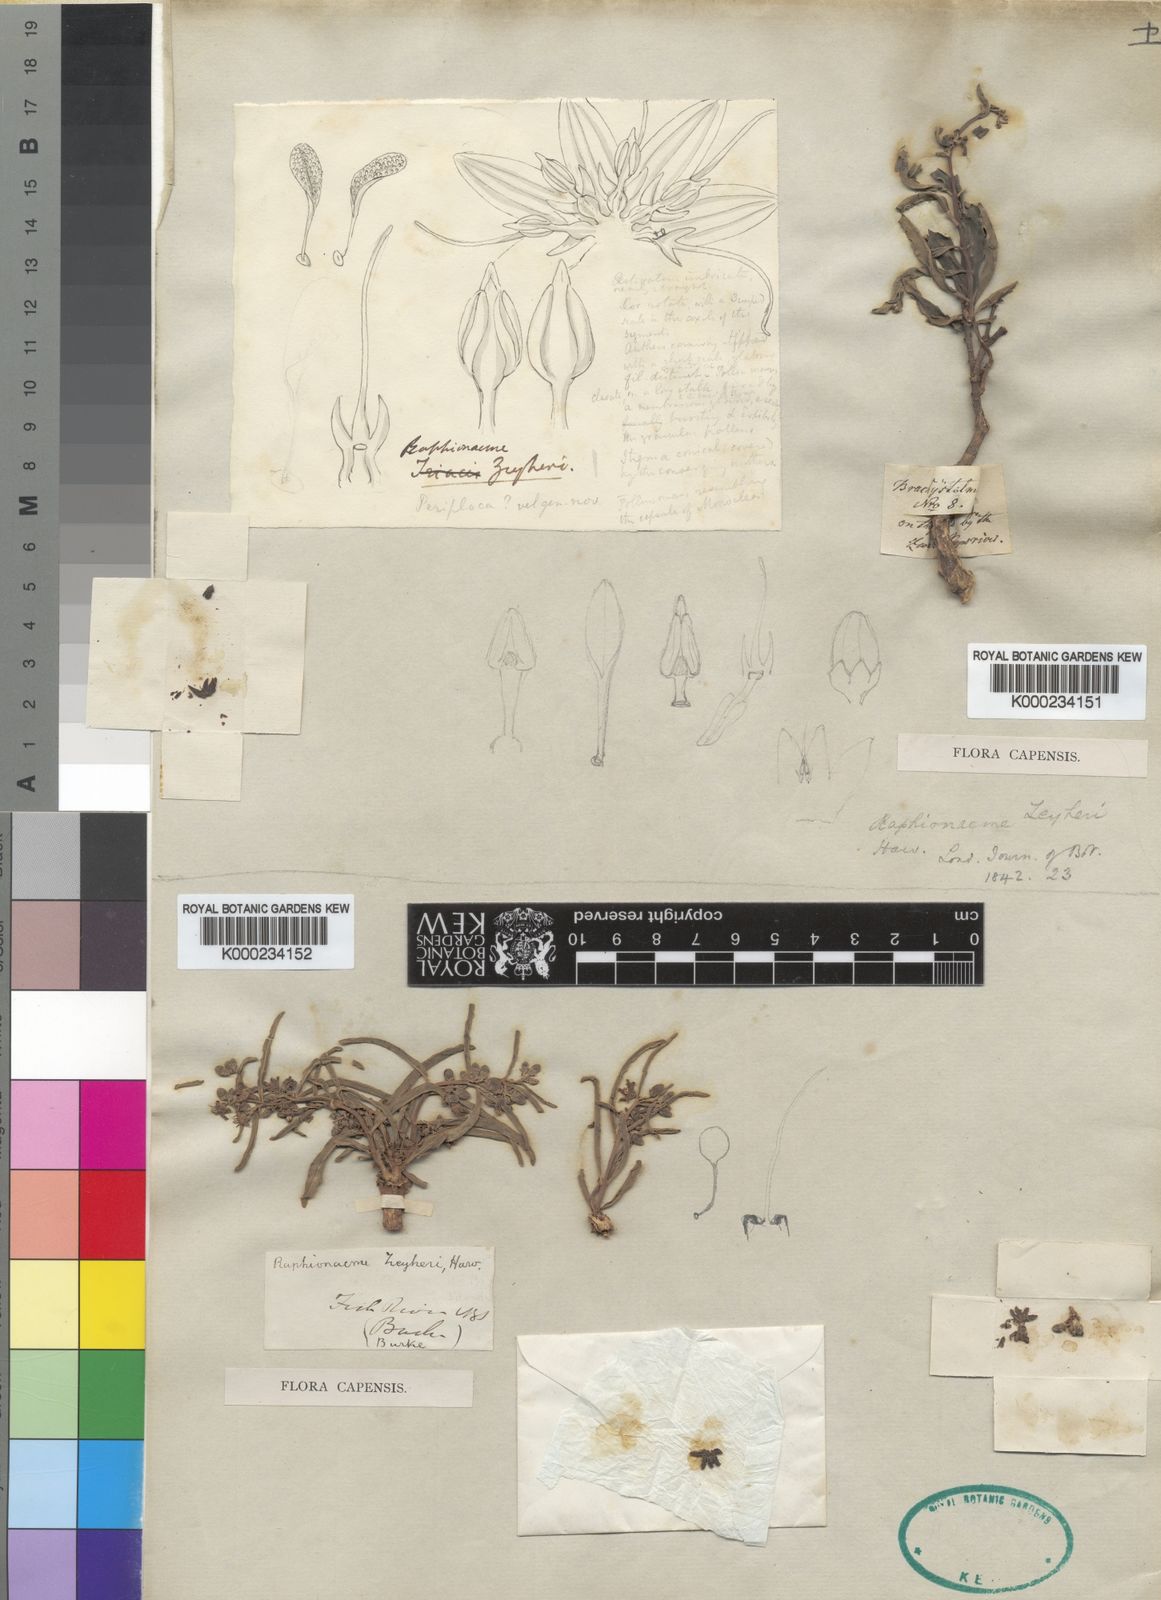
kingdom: Plantae
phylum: Tracheophyta
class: Magnoliopsida
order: Gentianales
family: Apocynaceae
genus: Raphionacme
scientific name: Raphionacme zeyheri
